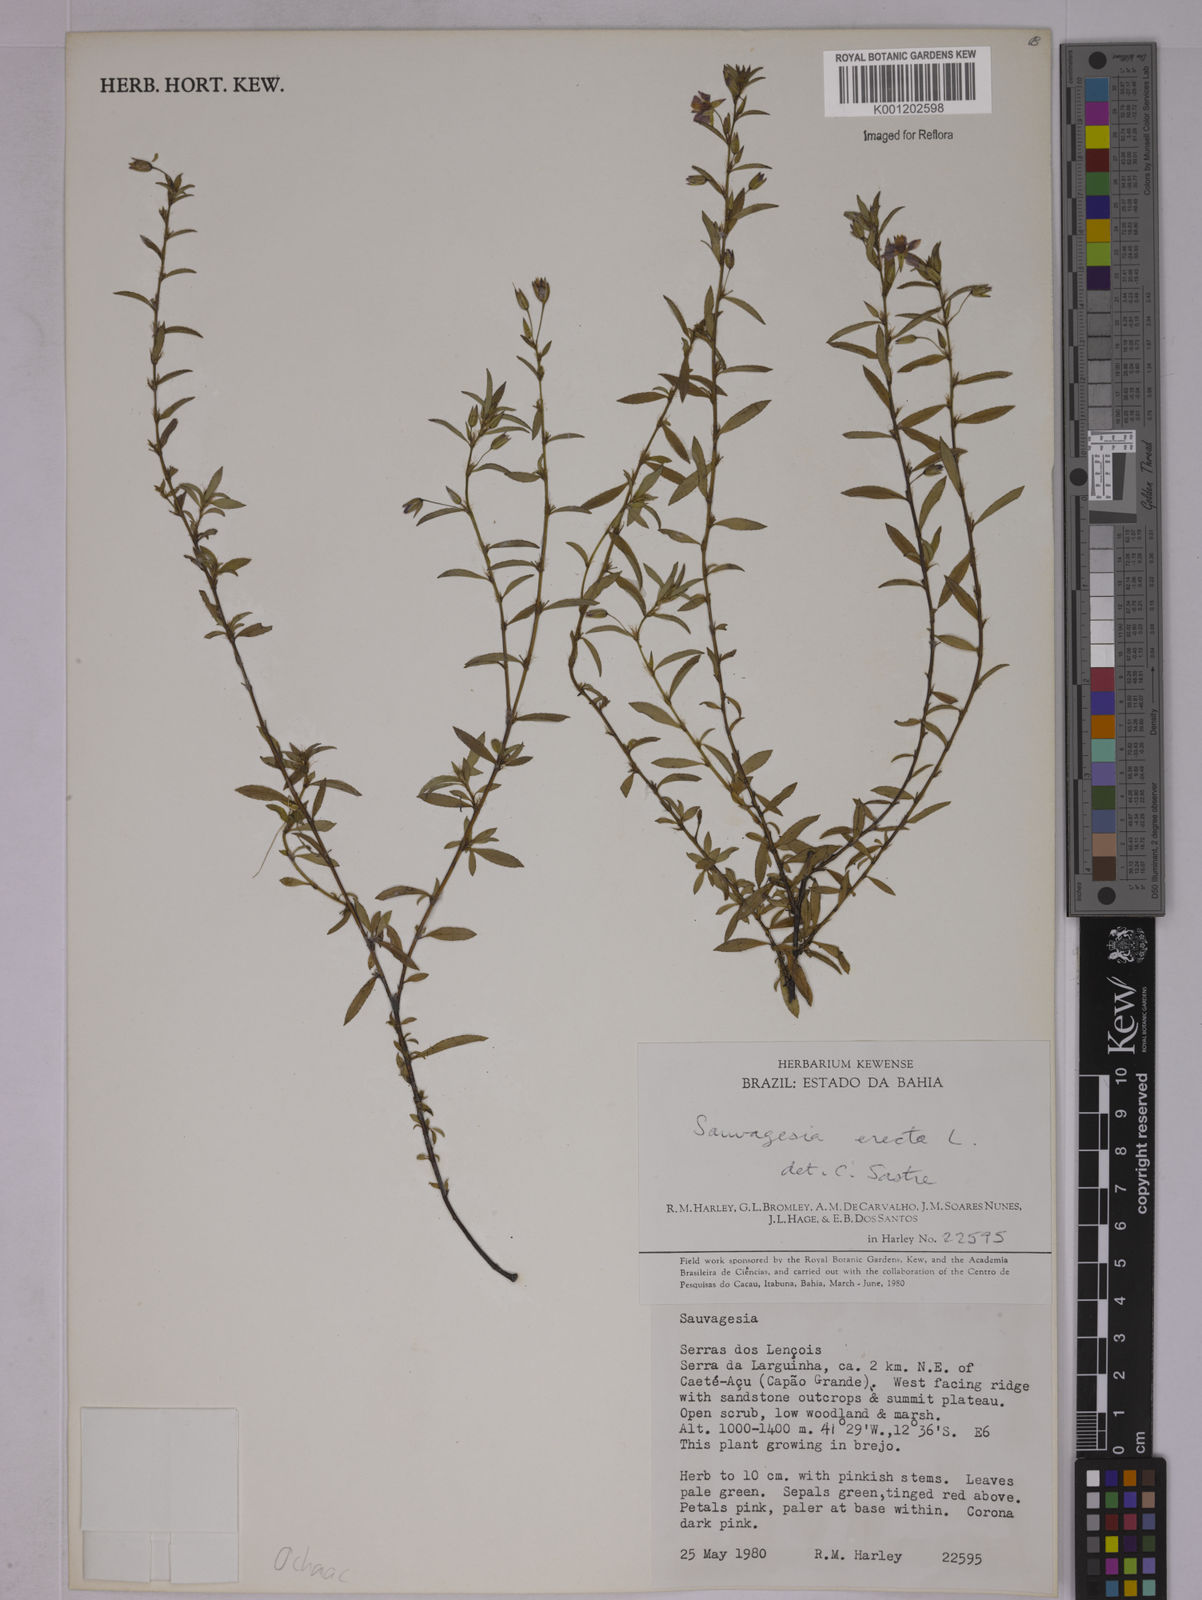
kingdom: Plantae
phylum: Tracheophyta
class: Magnoliopsida
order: Malpighiales
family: Ochnaceae
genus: Sauvagesia
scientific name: Sauvagesia erecta
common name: Creole tea
